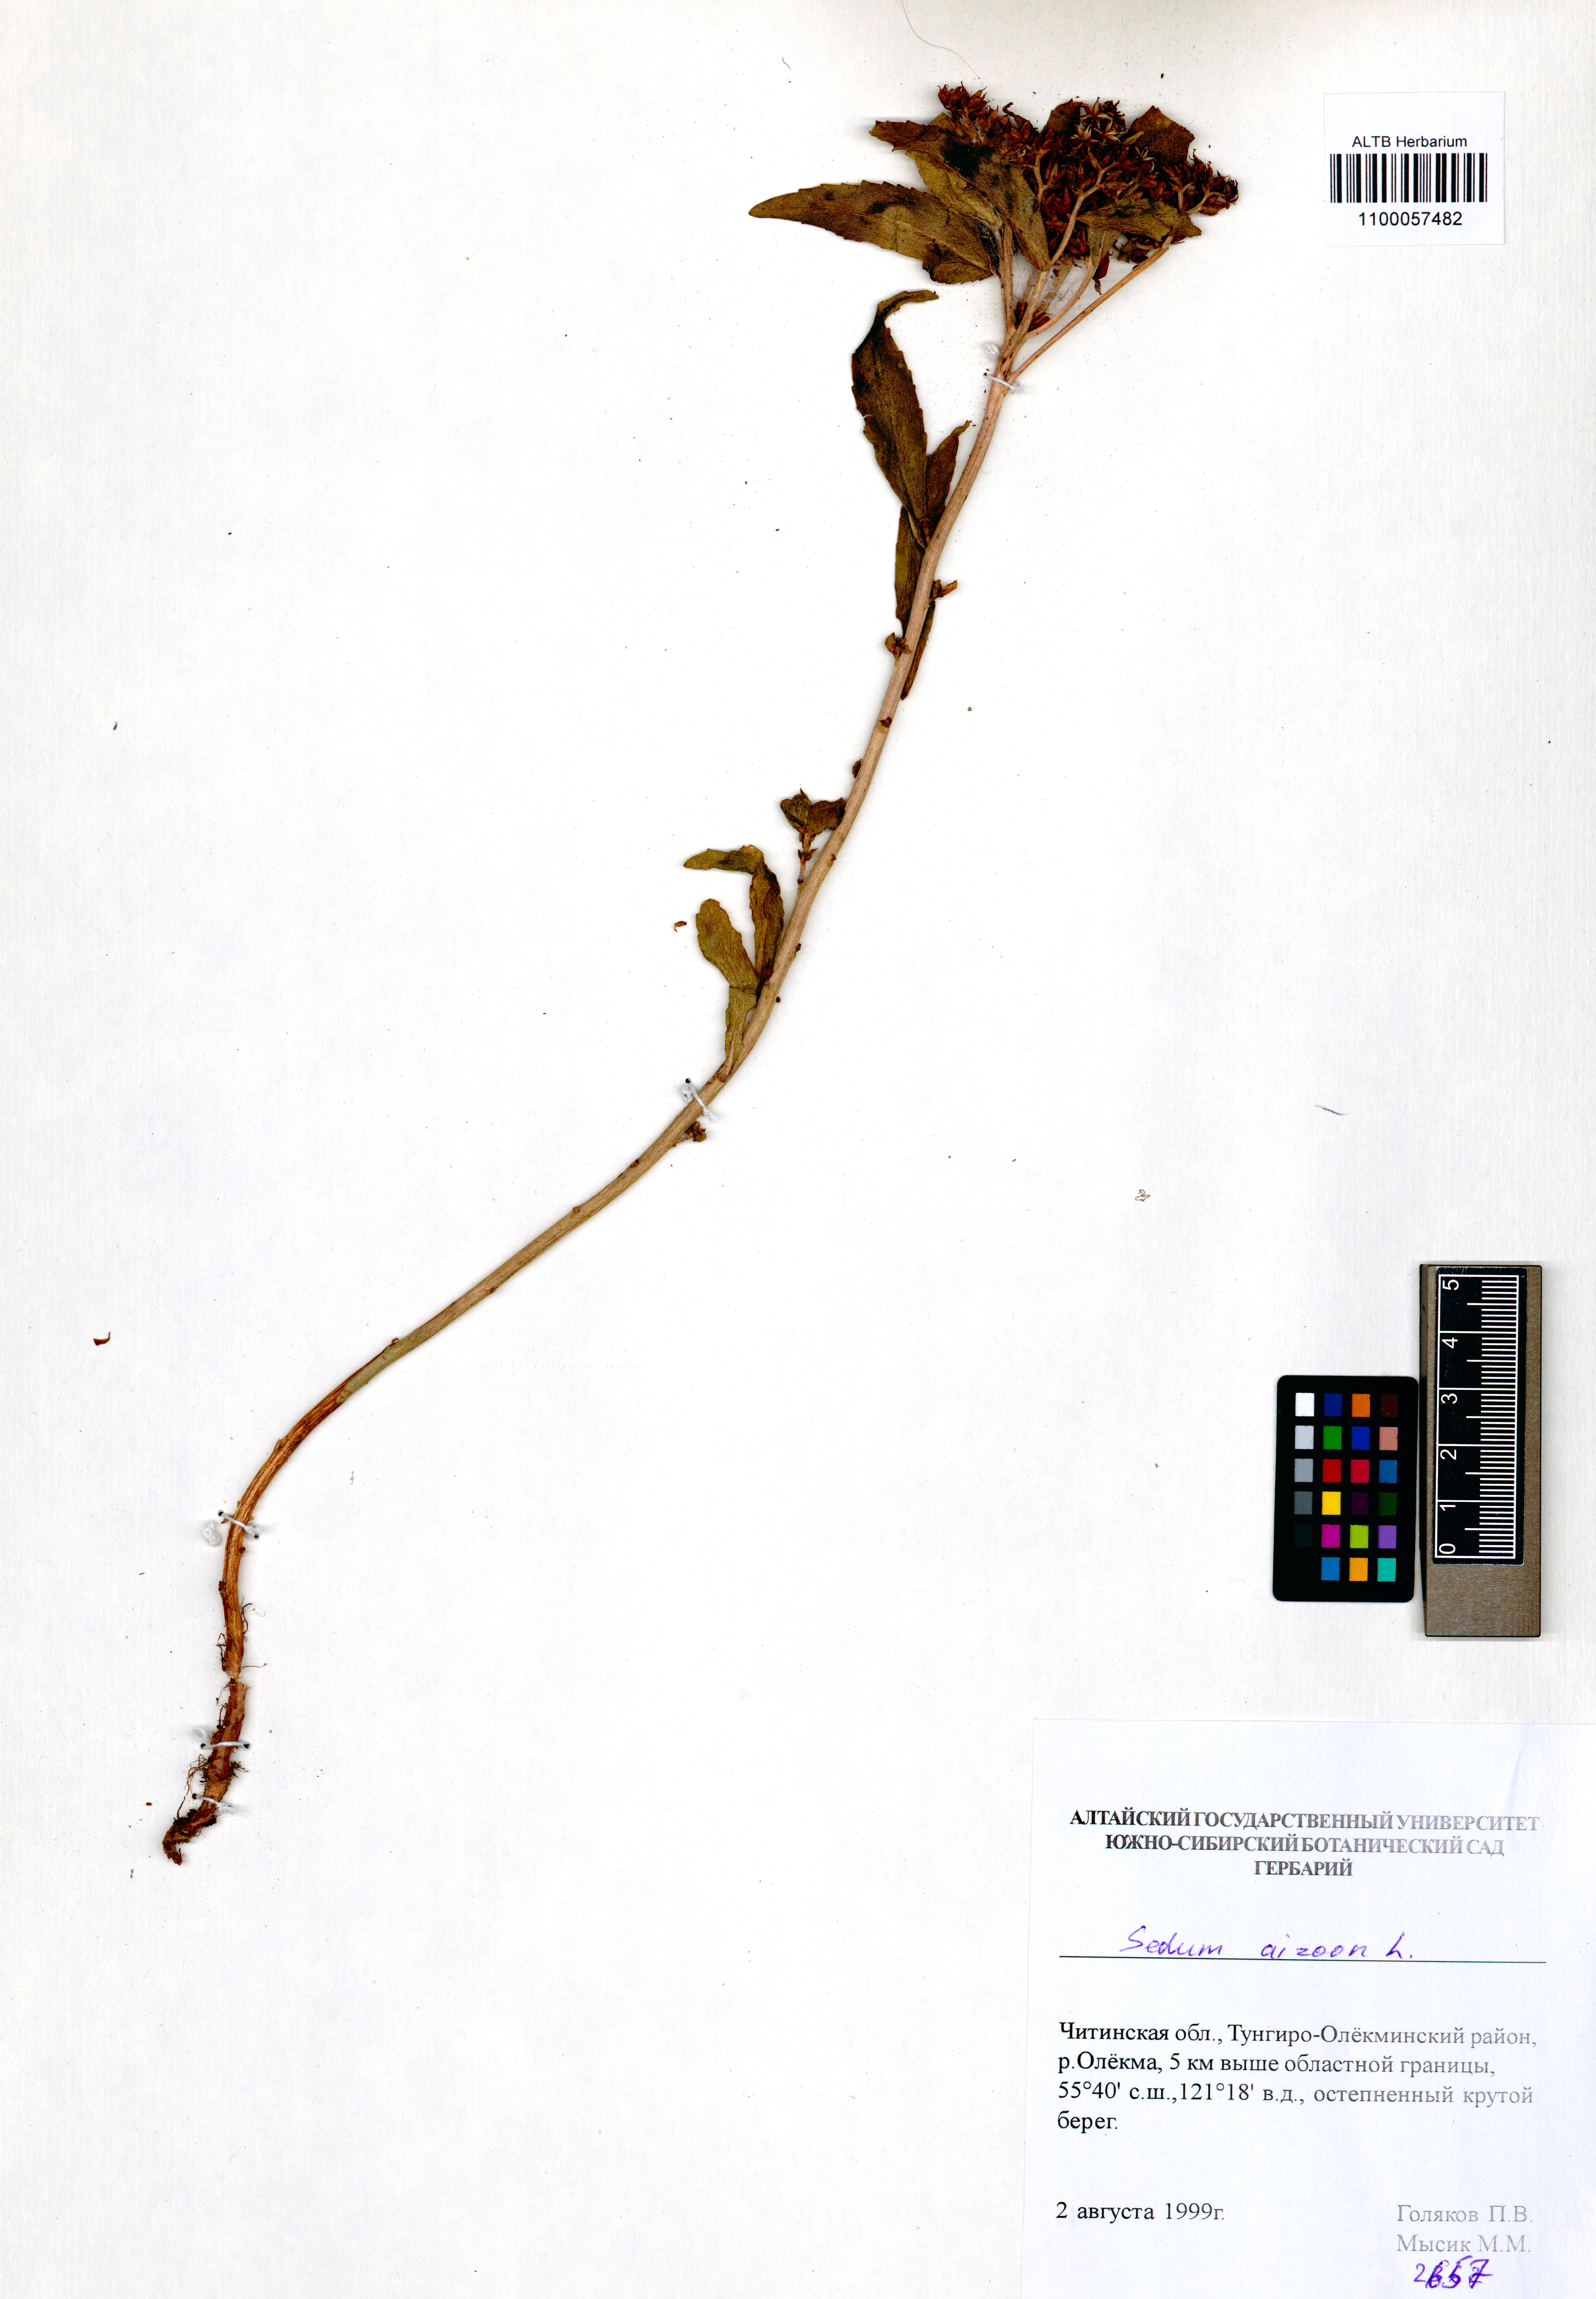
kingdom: Plantae
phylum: Tracheophyta
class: Magnoliopsida
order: Saxifragales
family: Crassulaceae
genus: Phedimus
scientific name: Phedimus aizoon
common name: Orpin aizoon
